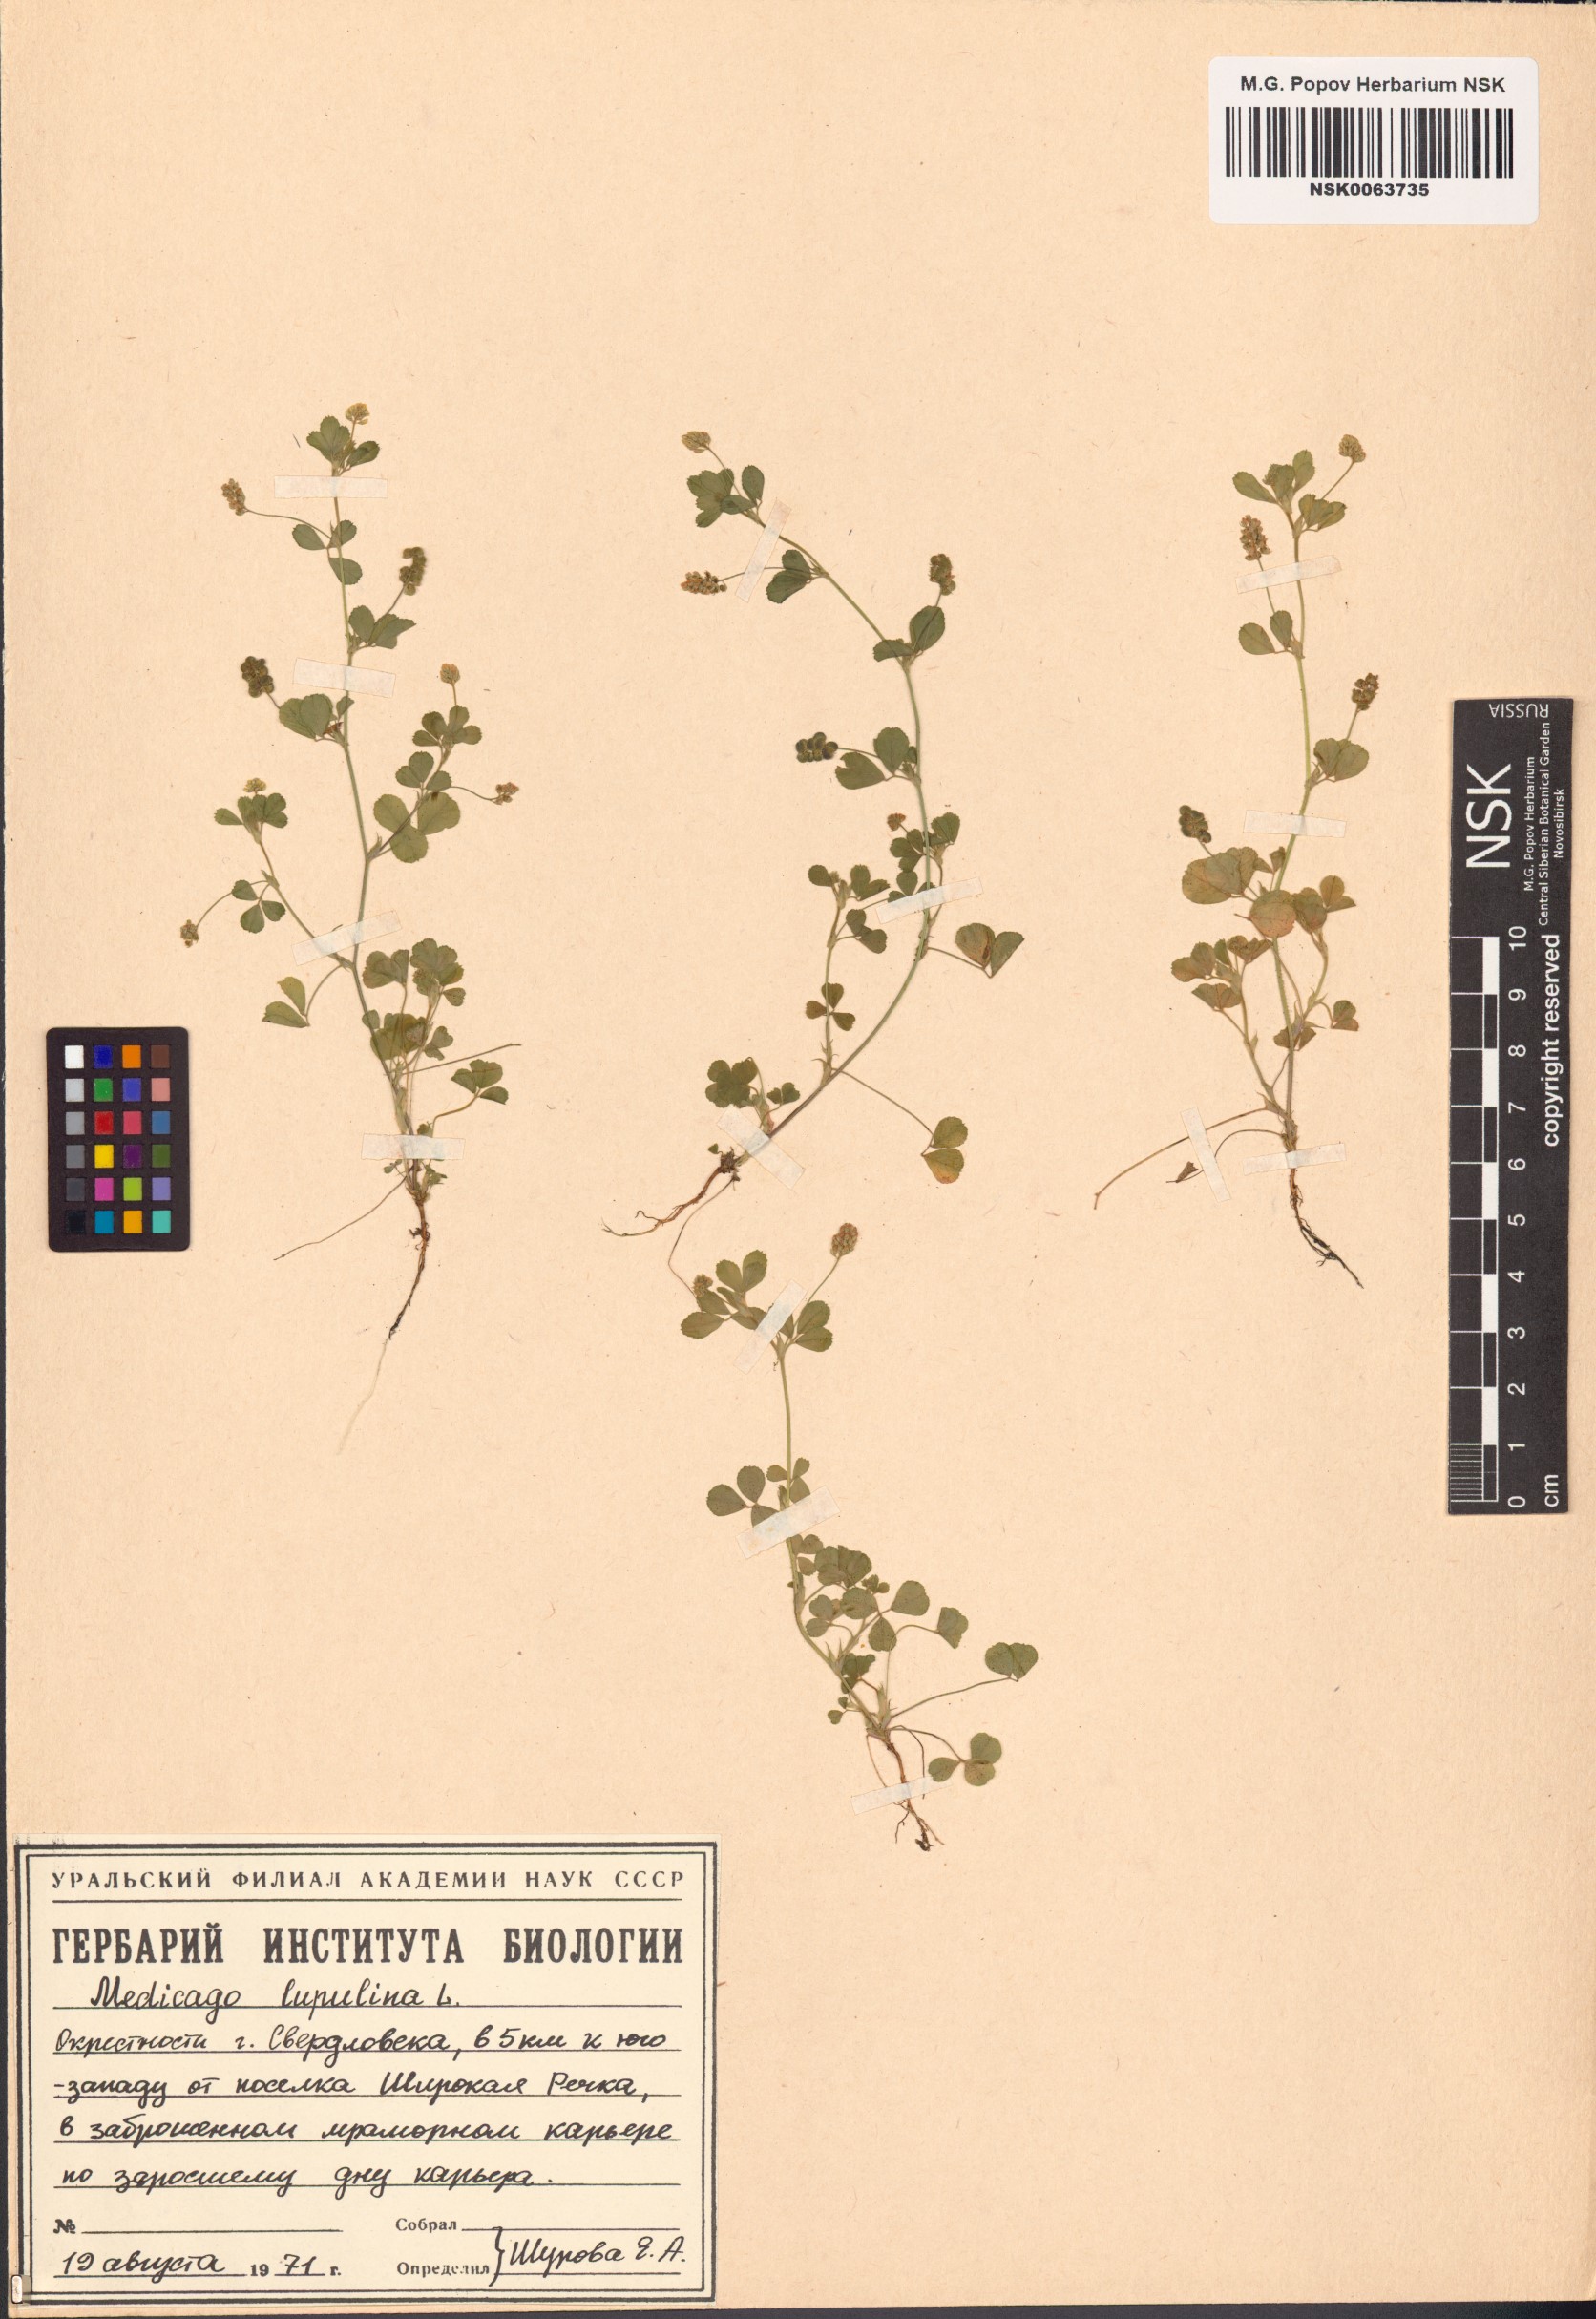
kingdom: Plantae
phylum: Tracheophyta
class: Magnoliopsida
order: Fabales
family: Fabaceae
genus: Medicago
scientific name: Medicago lupulina
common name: Black medick
